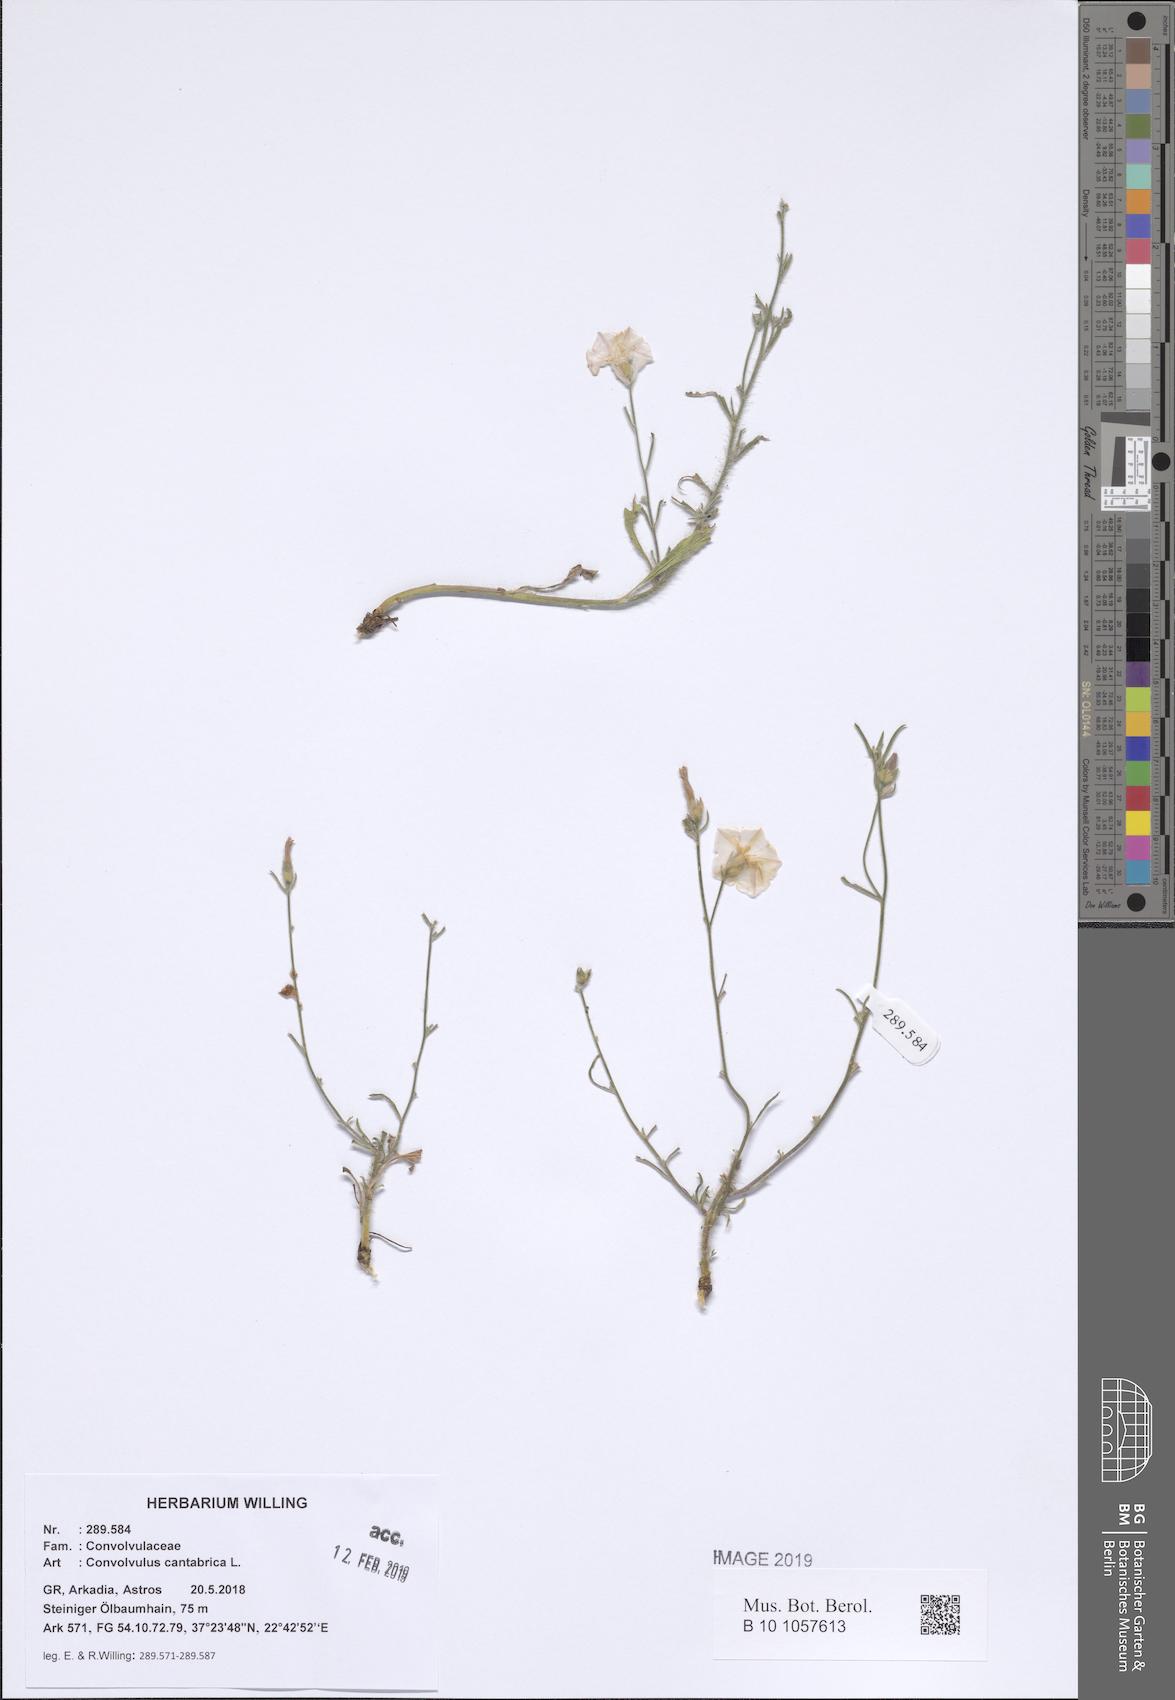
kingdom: Plantae
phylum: Tracheophyta
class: Magnoliopsida
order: Solanales
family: Convolvulaceae
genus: Convolvulus
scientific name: Convolvulus cantabrica
